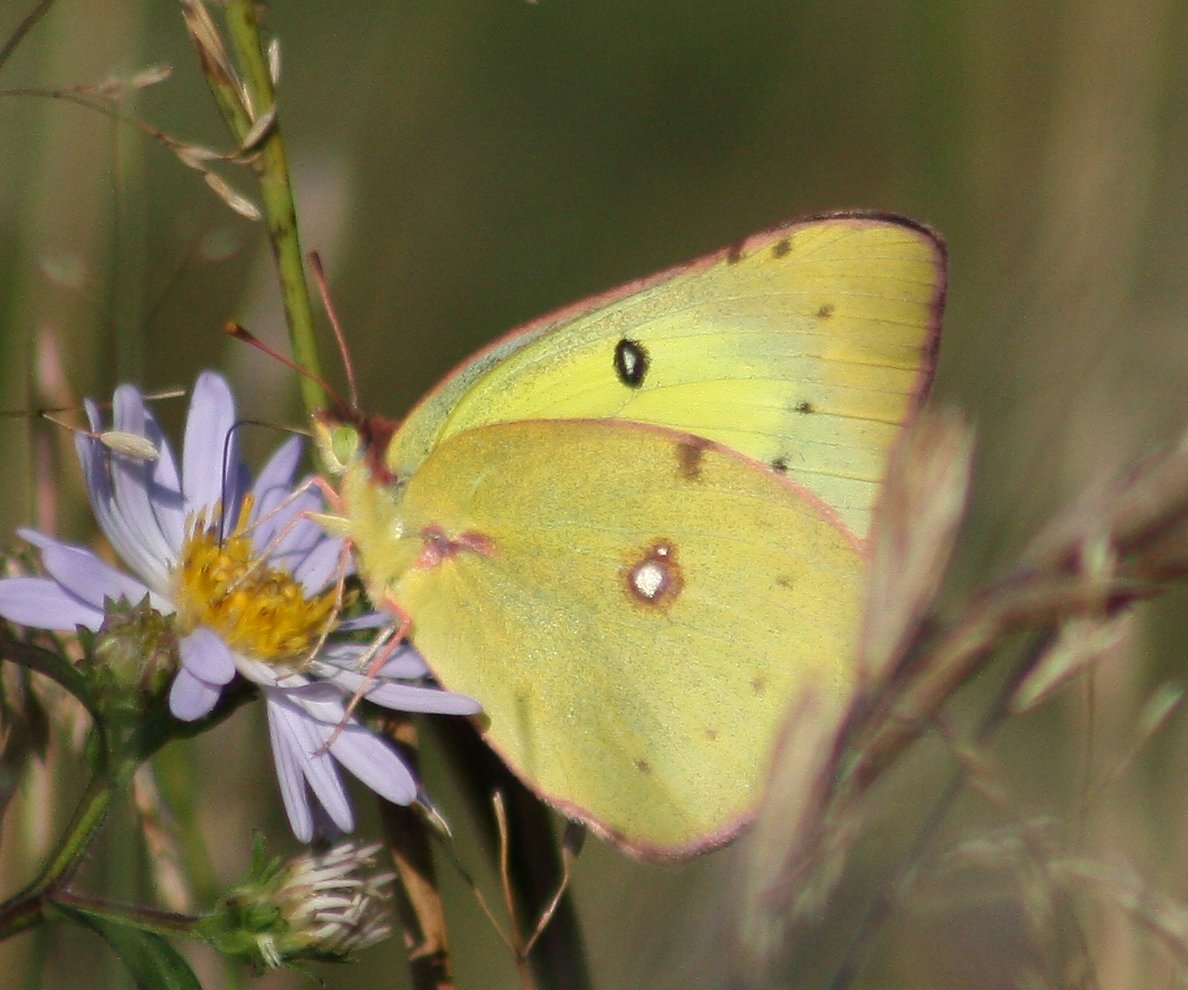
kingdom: Animalia
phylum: Arthropoda
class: Insecta
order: Lepidoptera
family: Pieridae
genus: Colias
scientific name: Colias philodice
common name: Clouded Sulphur
